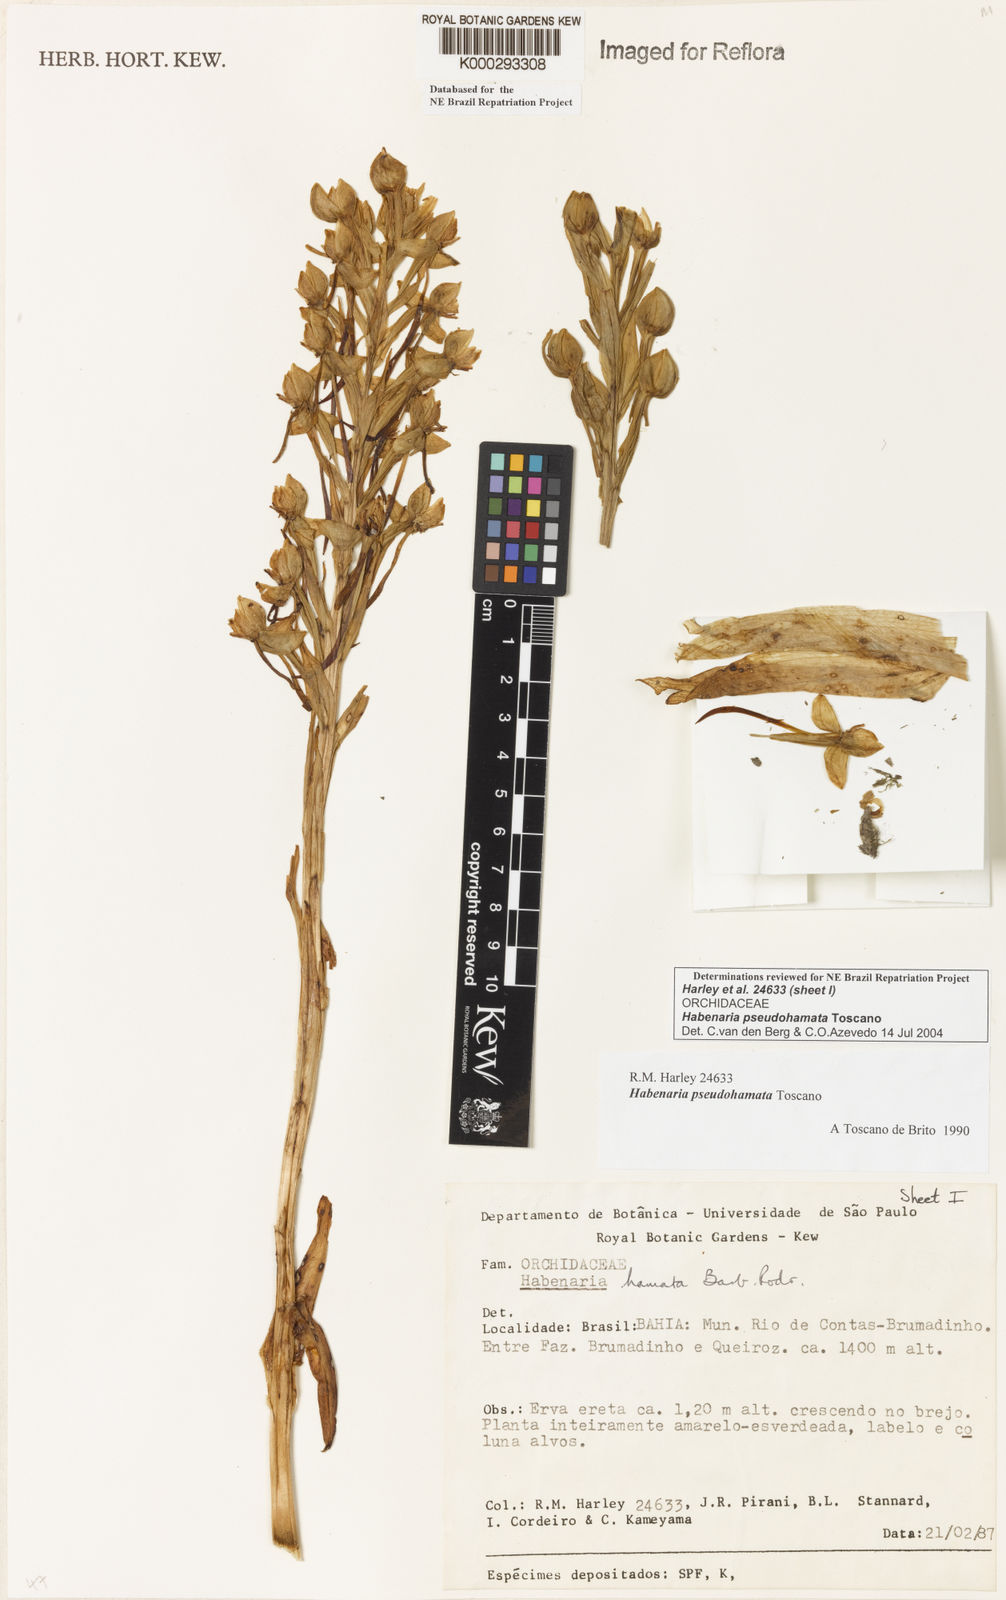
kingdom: Plantae
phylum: Tracheophyta
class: Liliopsida
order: Asparagales
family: Orchidaceae
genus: Habenaria
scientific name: Habenaria pseudohamata
